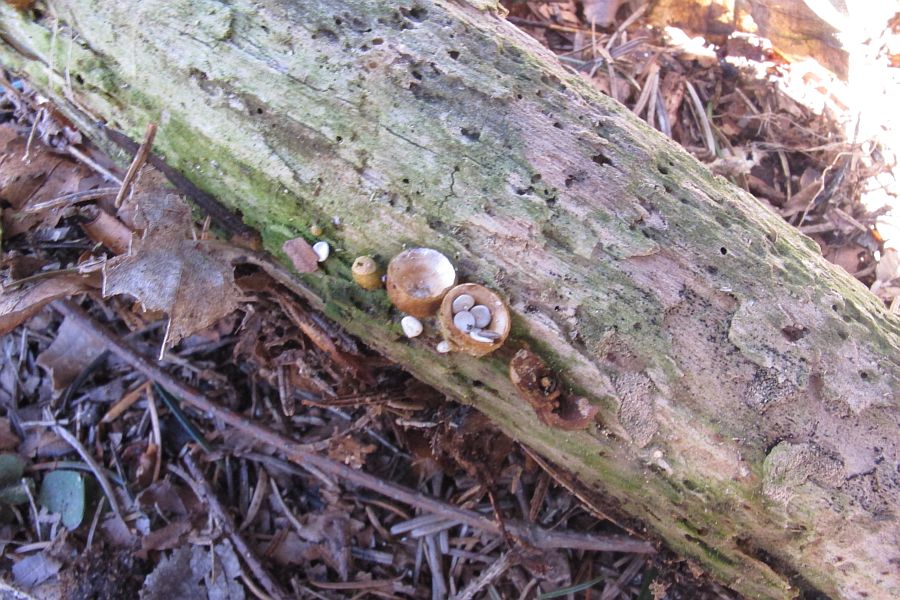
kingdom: Fungi
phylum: Basidiomycota
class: Agaricomycetes
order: Agaricales
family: Nidulariaceae
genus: Crucibulum
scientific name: Crucibulum crucibuliforme
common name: krukkesvamp
